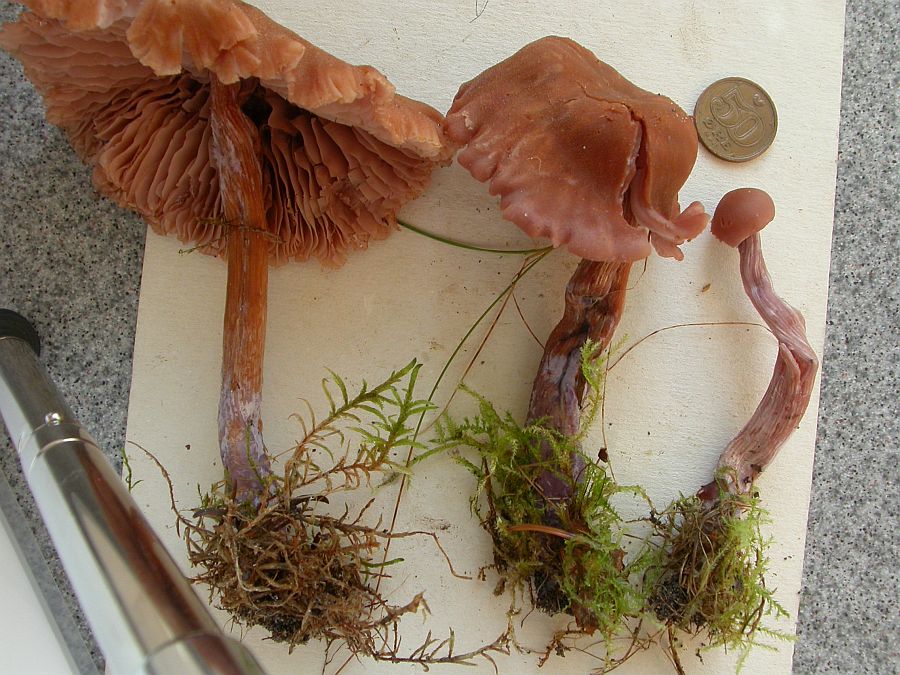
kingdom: Fungi
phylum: Basidiomycota
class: Agaricomycetes
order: Agaricales
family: Hydnangiaceae
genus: Laccaria
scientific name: Laccaria bicolor
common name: tvefarvet ametysthat
